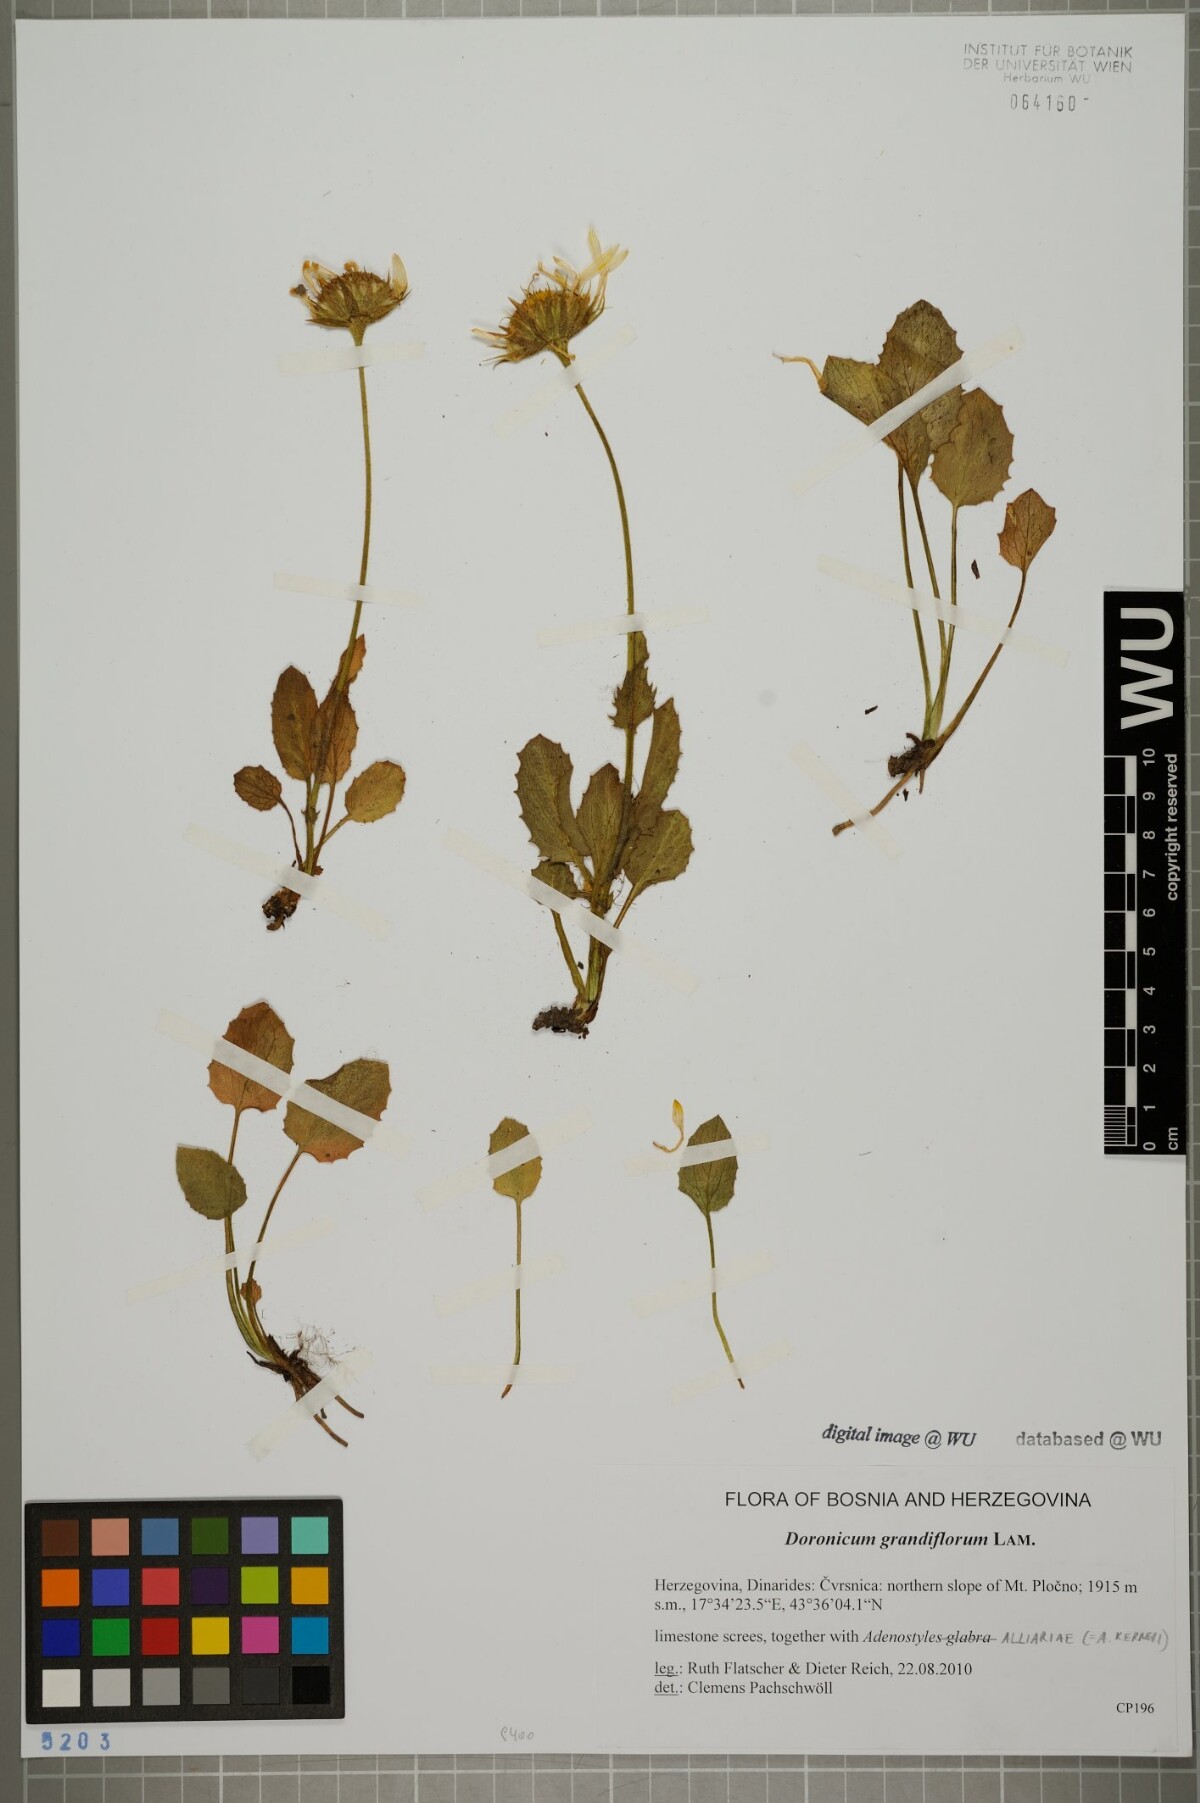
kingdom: Plantae
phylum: Tracheophyta
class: Magnoliopsida
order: Asterales
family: Asteraceae
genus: Doronicum
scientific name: Doronicum grandiflorum
